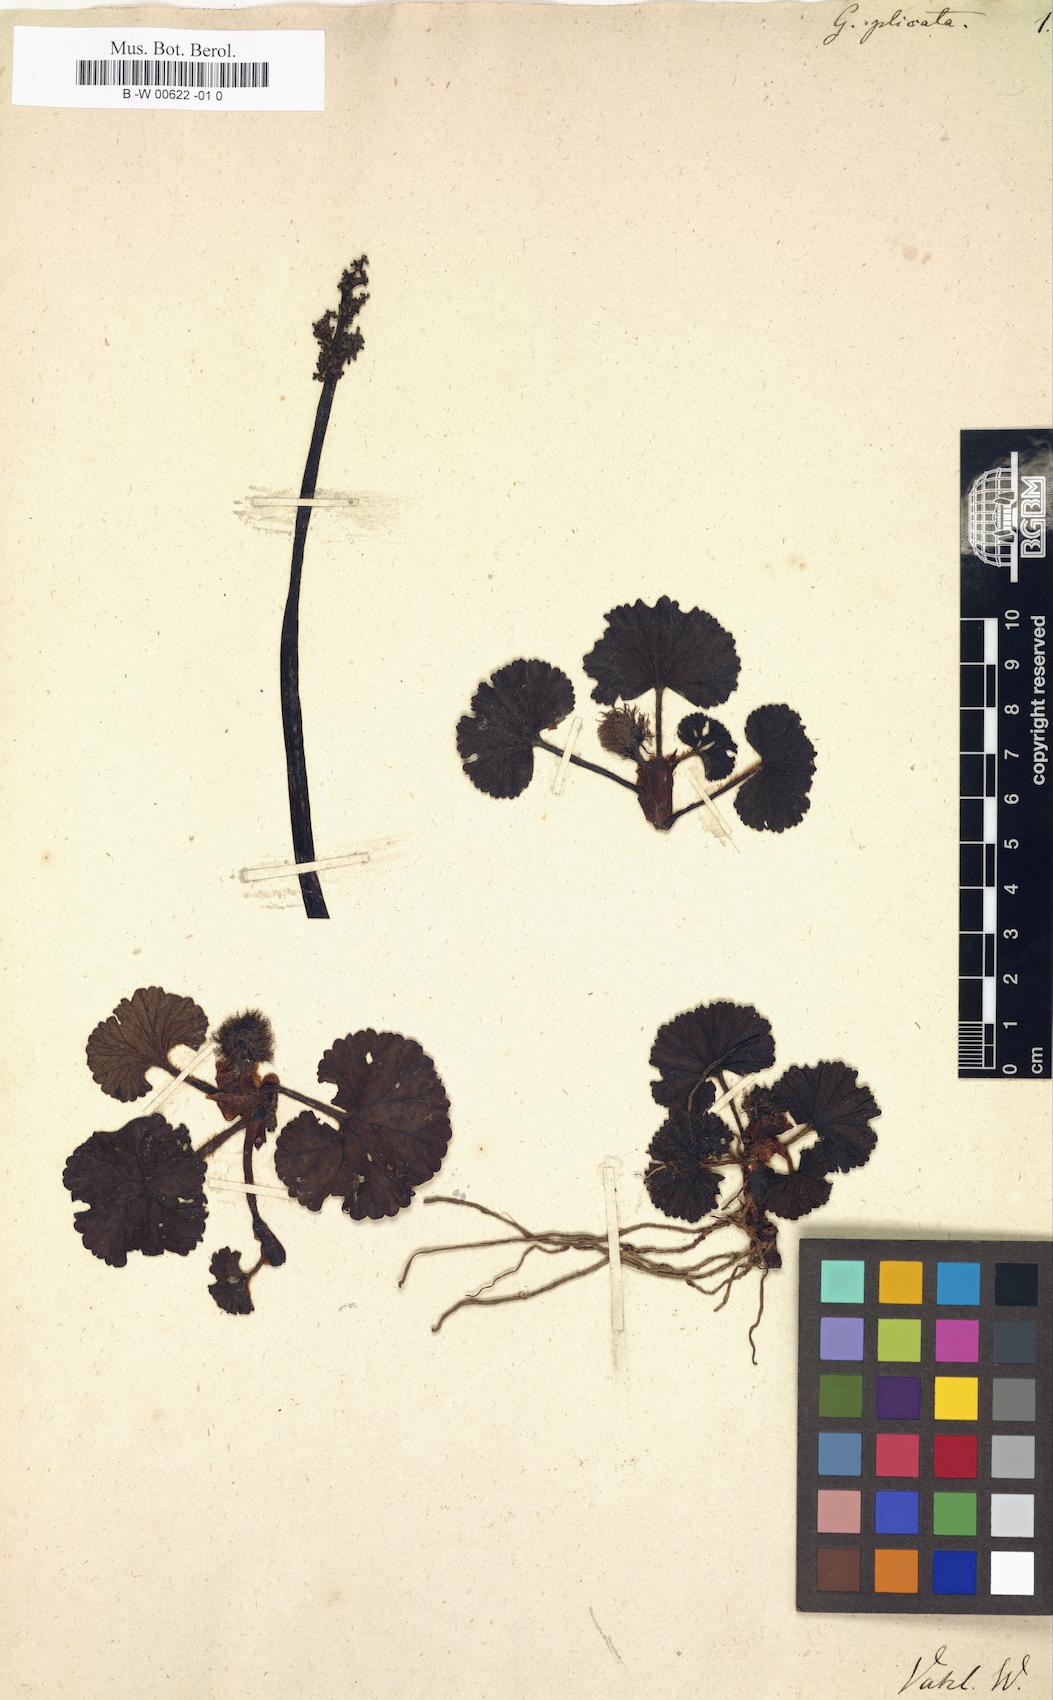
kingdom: Plantae
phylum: Tracheophyta
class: Magnoliopsida
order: Gunnerales
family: Gunneraceae
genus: Gunnera
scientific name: Gunnera magellanica
